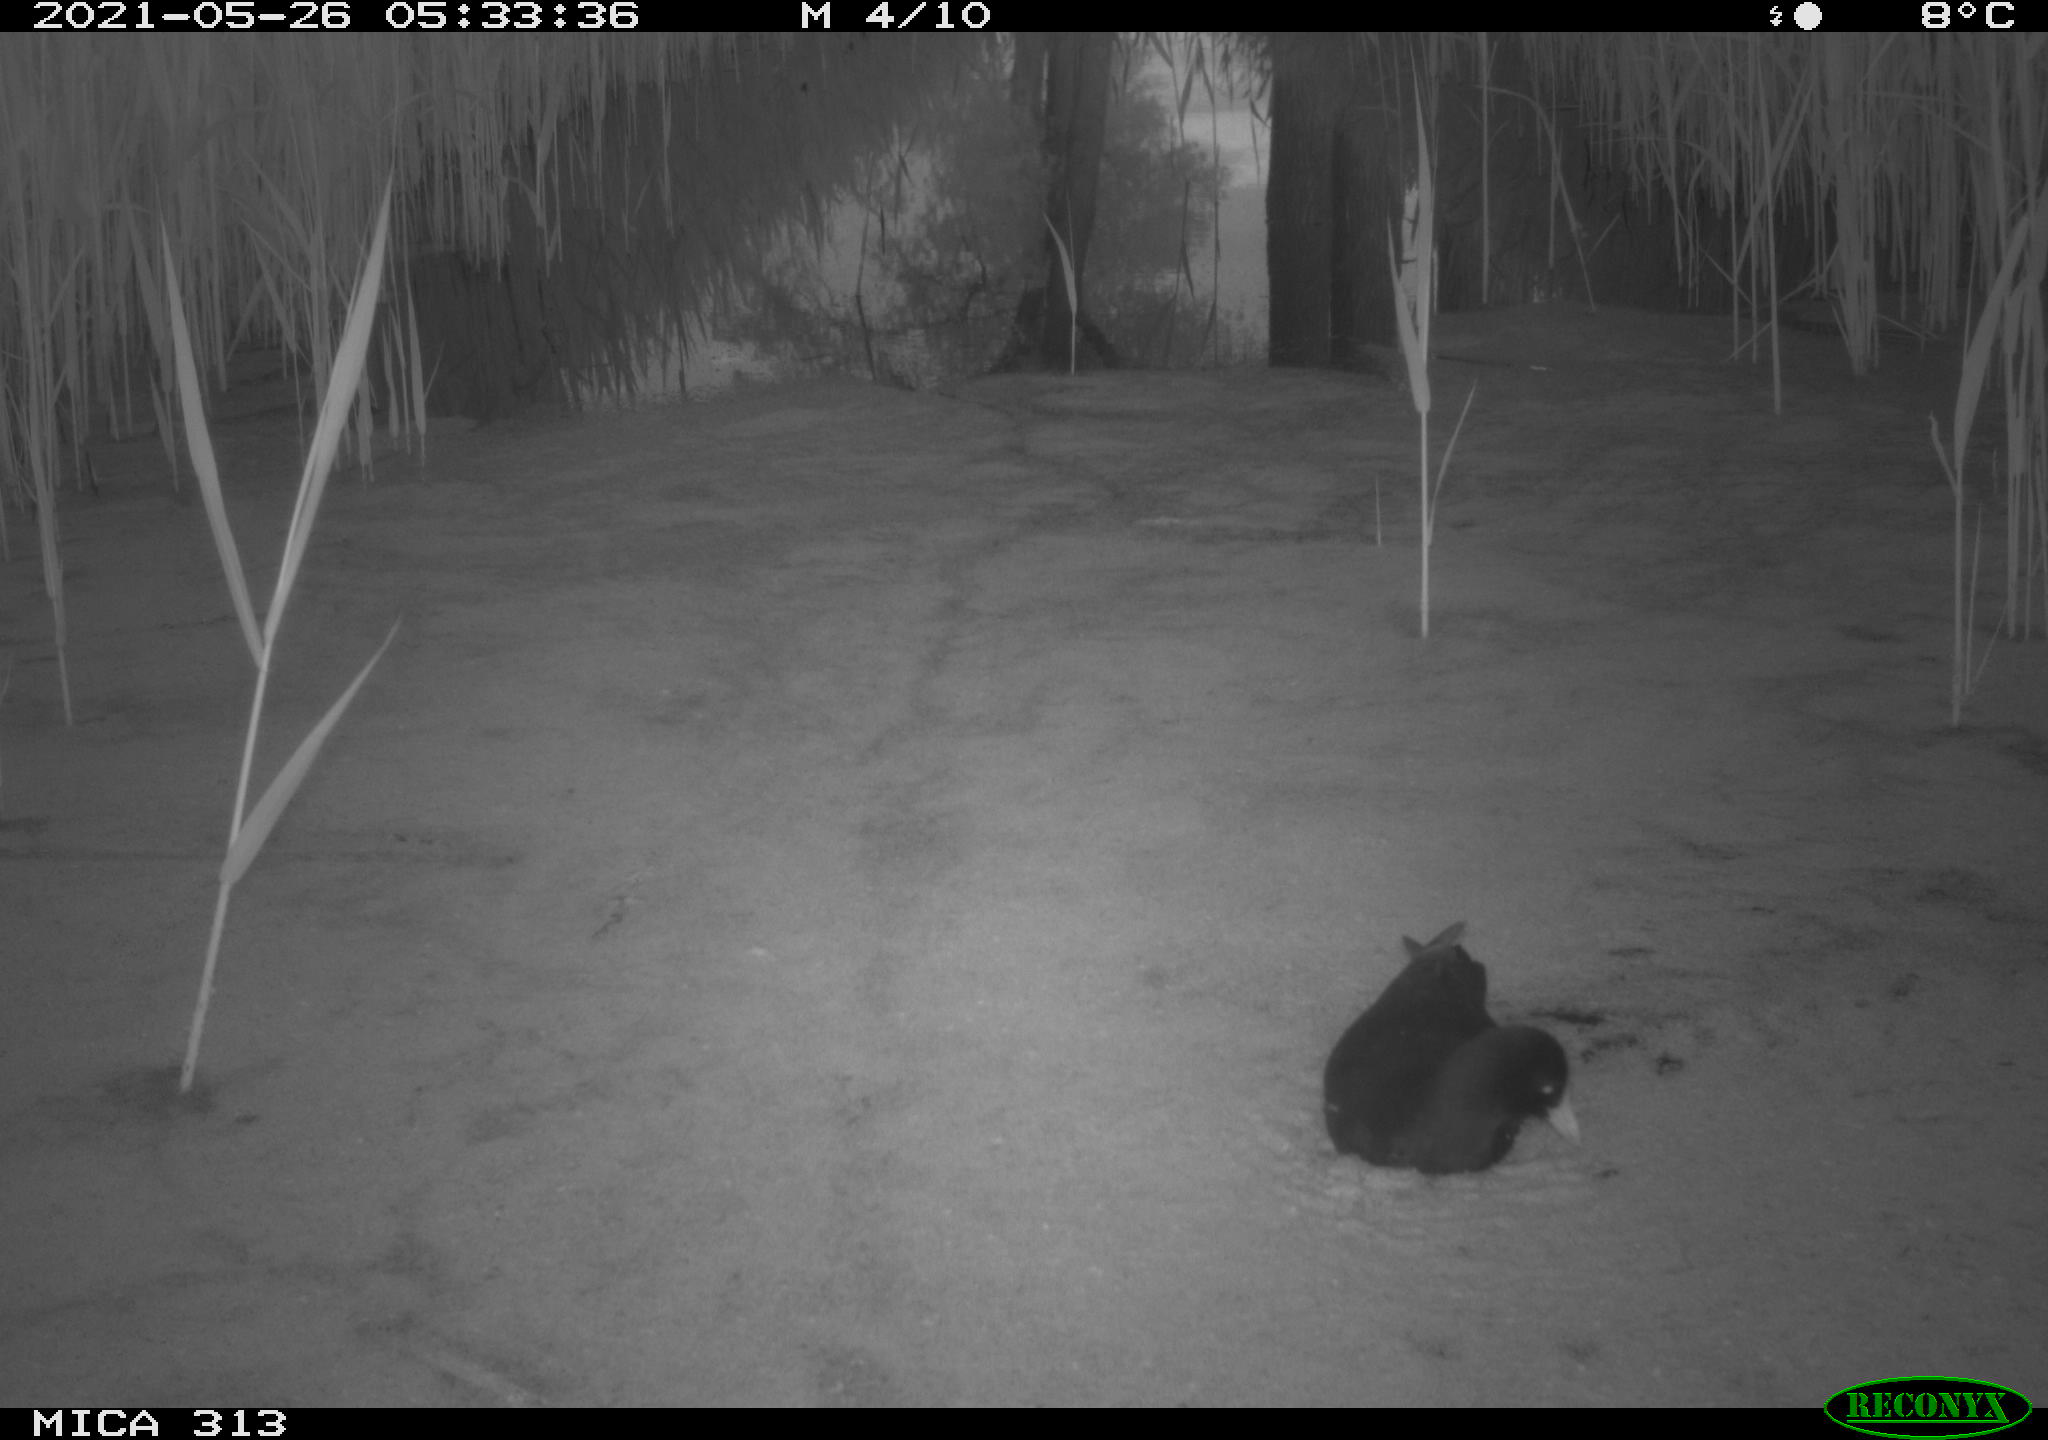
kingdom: Animalia
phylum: Chordata
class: Aves
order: Gruiformes
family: Rallidae
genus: Gallinula
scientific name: Gallinula chloropus
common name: Common moorhen
